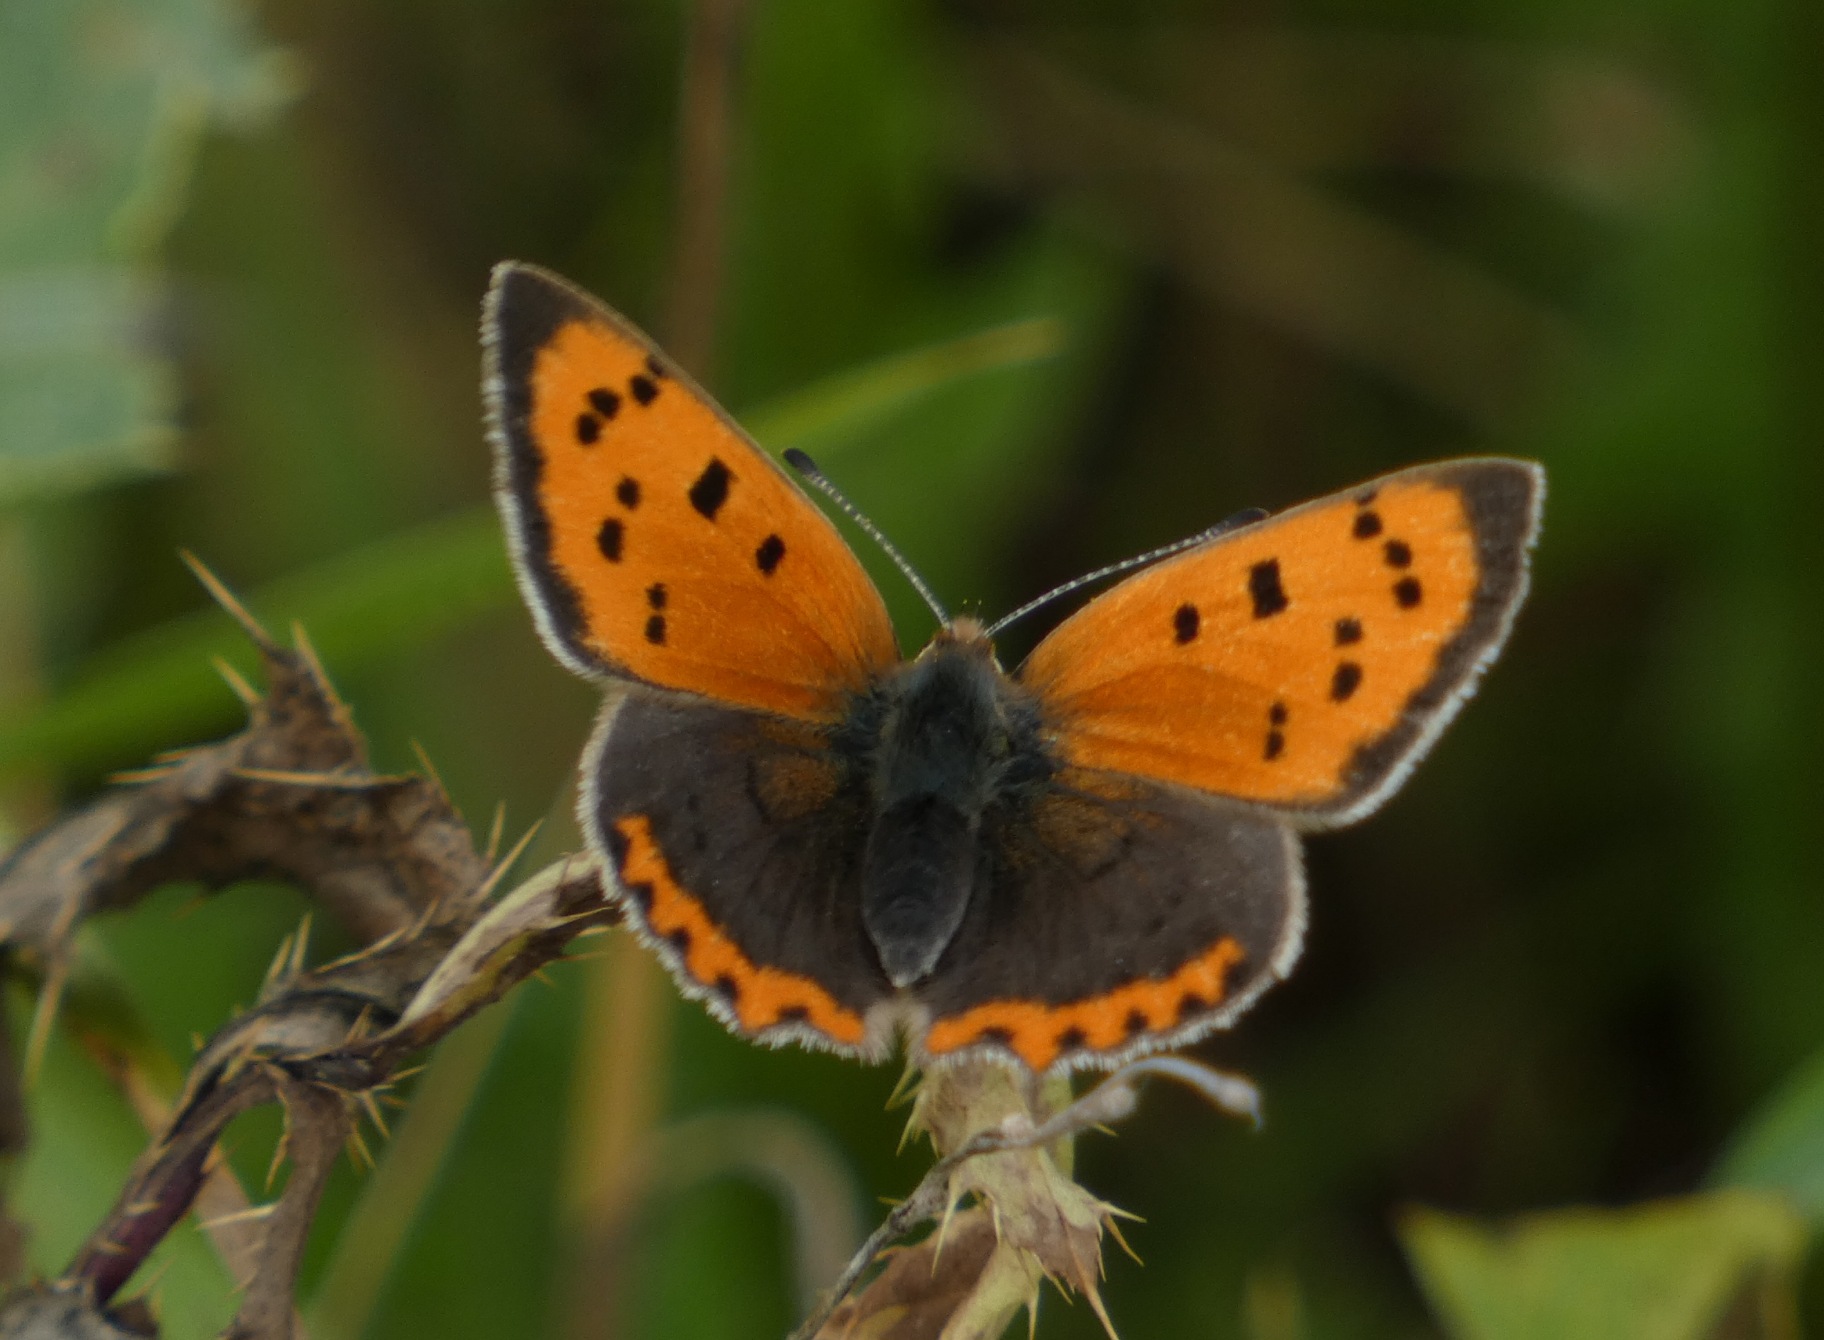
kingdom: Animalia
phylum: Arthropoda
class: Insecta
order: Lepidoptera
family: Lycaenidae
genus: Lycaena
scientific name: Lycaena phlaeas
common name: Lille ildfugl
